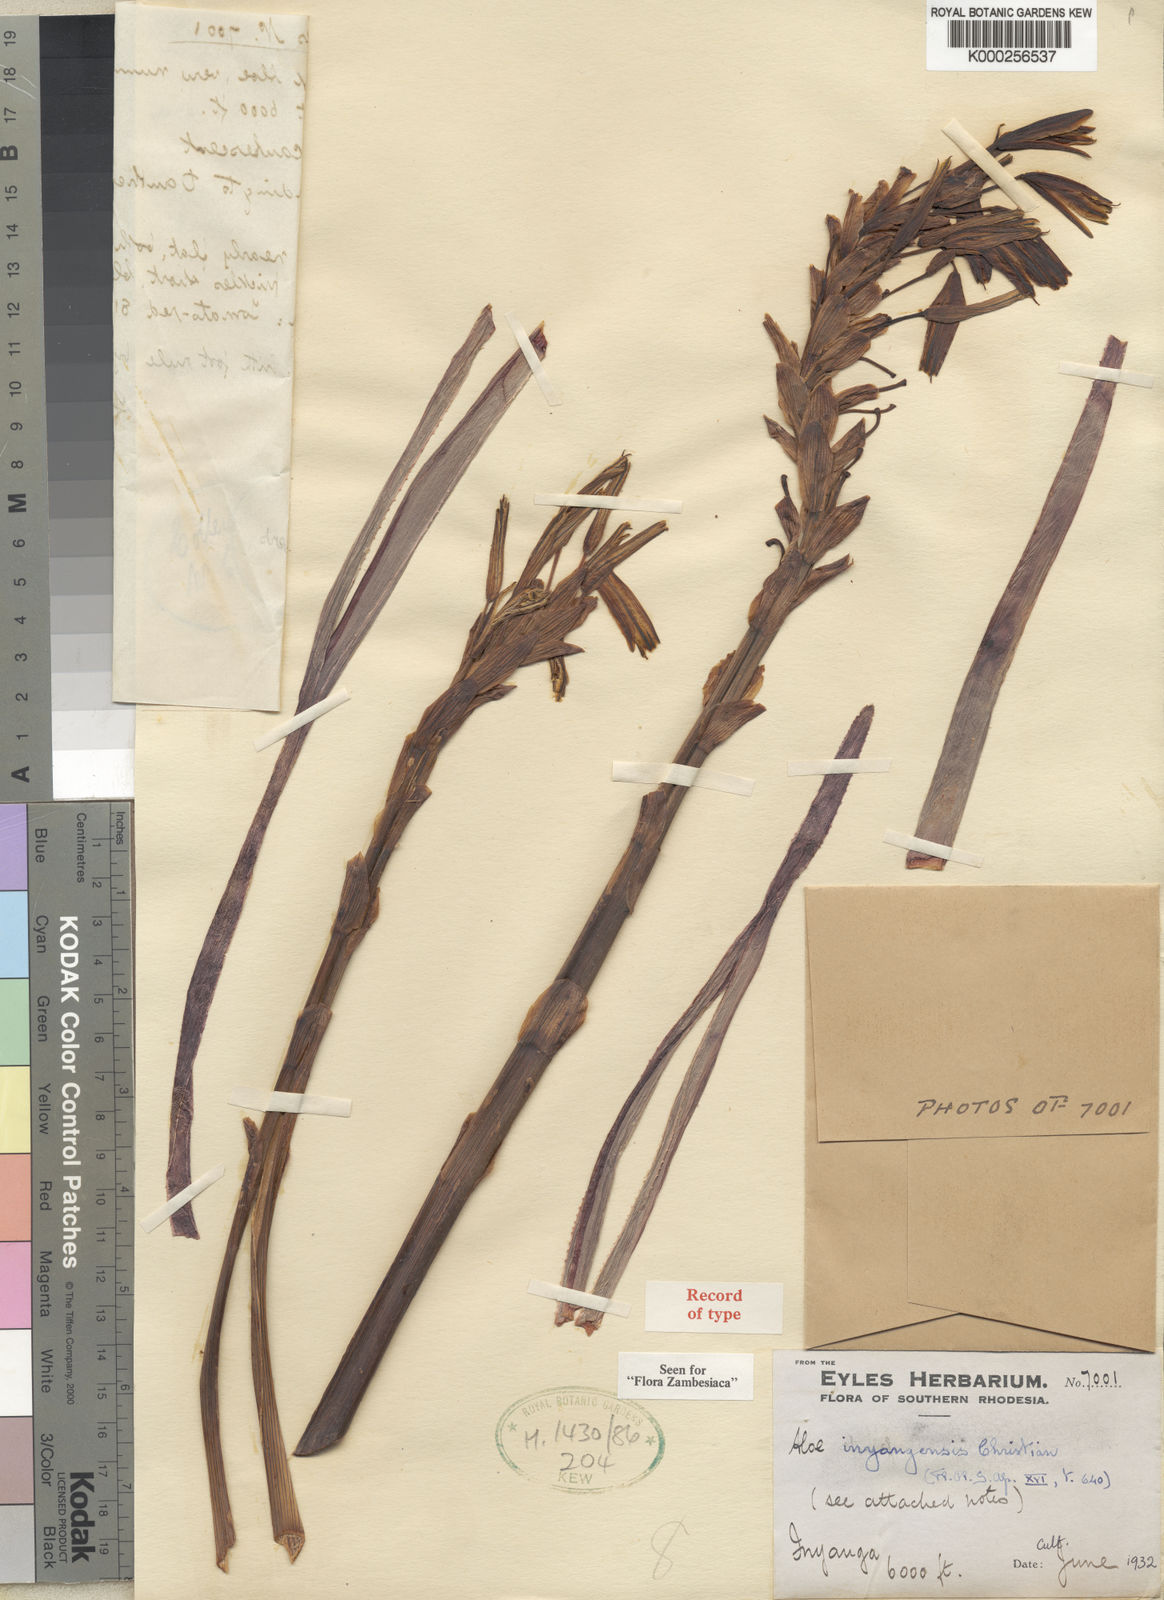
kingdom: Plantae
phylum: Tracheophyta
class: Liliopsida
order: Asparagales
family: Asphodelaceae
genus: Aloe
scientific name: Aloe inyangensis
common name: Inyanga aloe
